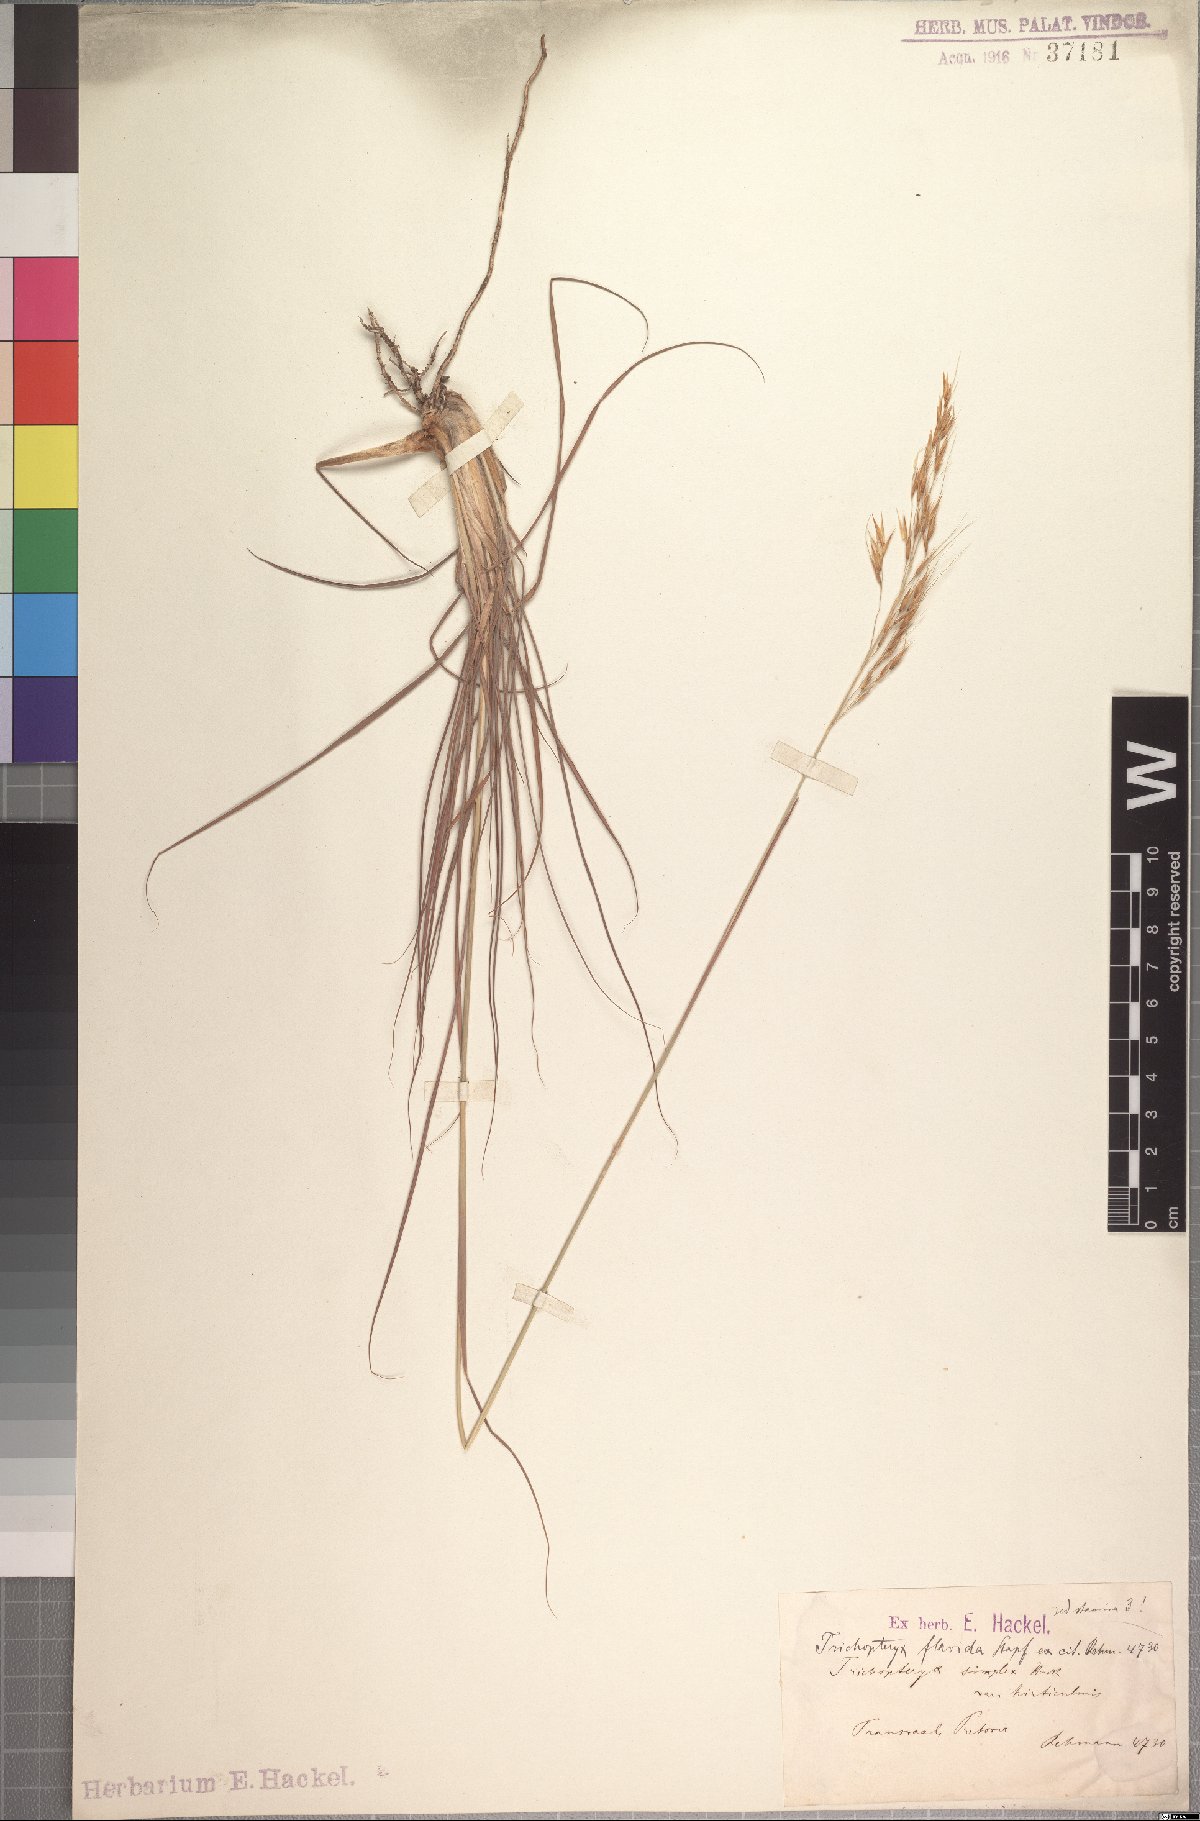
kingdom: Plantae
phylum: Tracheophyta
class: Liliopsida
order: Poales
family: Poaceae
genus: Loudetia
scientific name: Loudetia flavida
